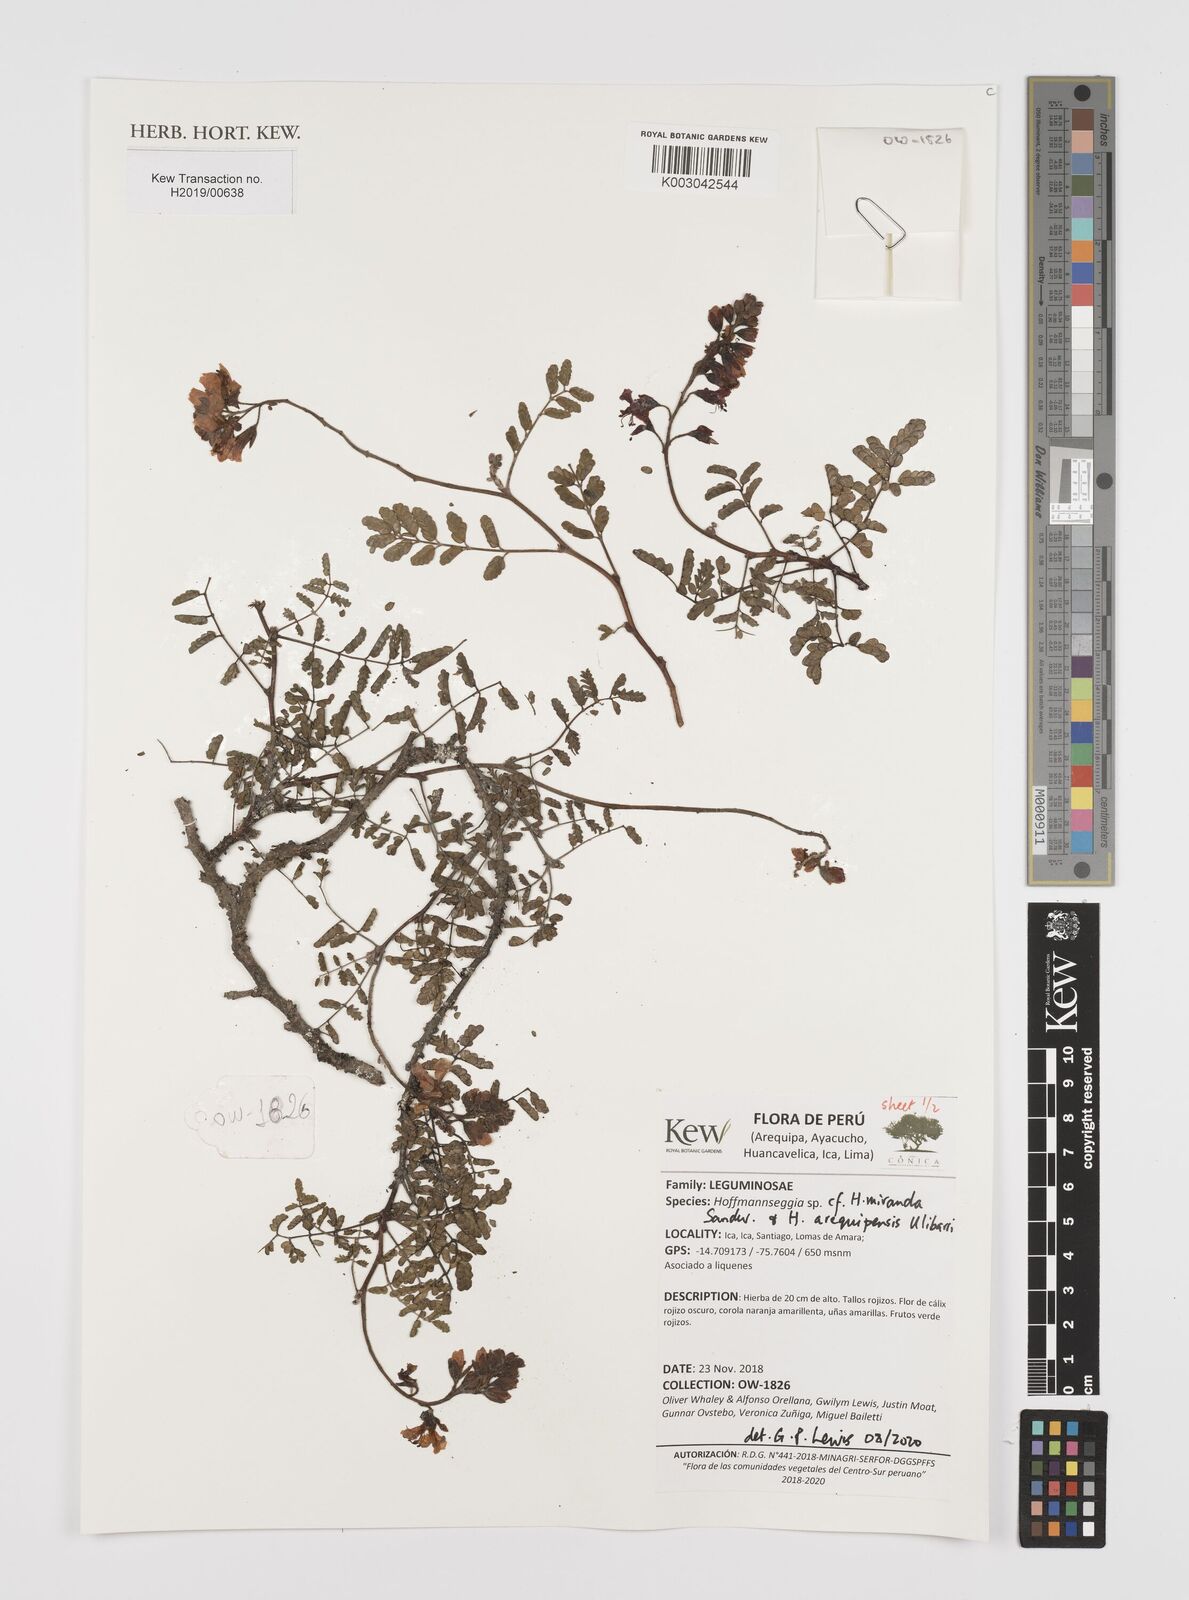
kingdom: Plantae
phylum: Tracheophyta
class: Magnoliopsida
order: Fabales
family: Fabaceae
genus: Hoffmannseggia
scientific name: Hoffmannseggia miranda
